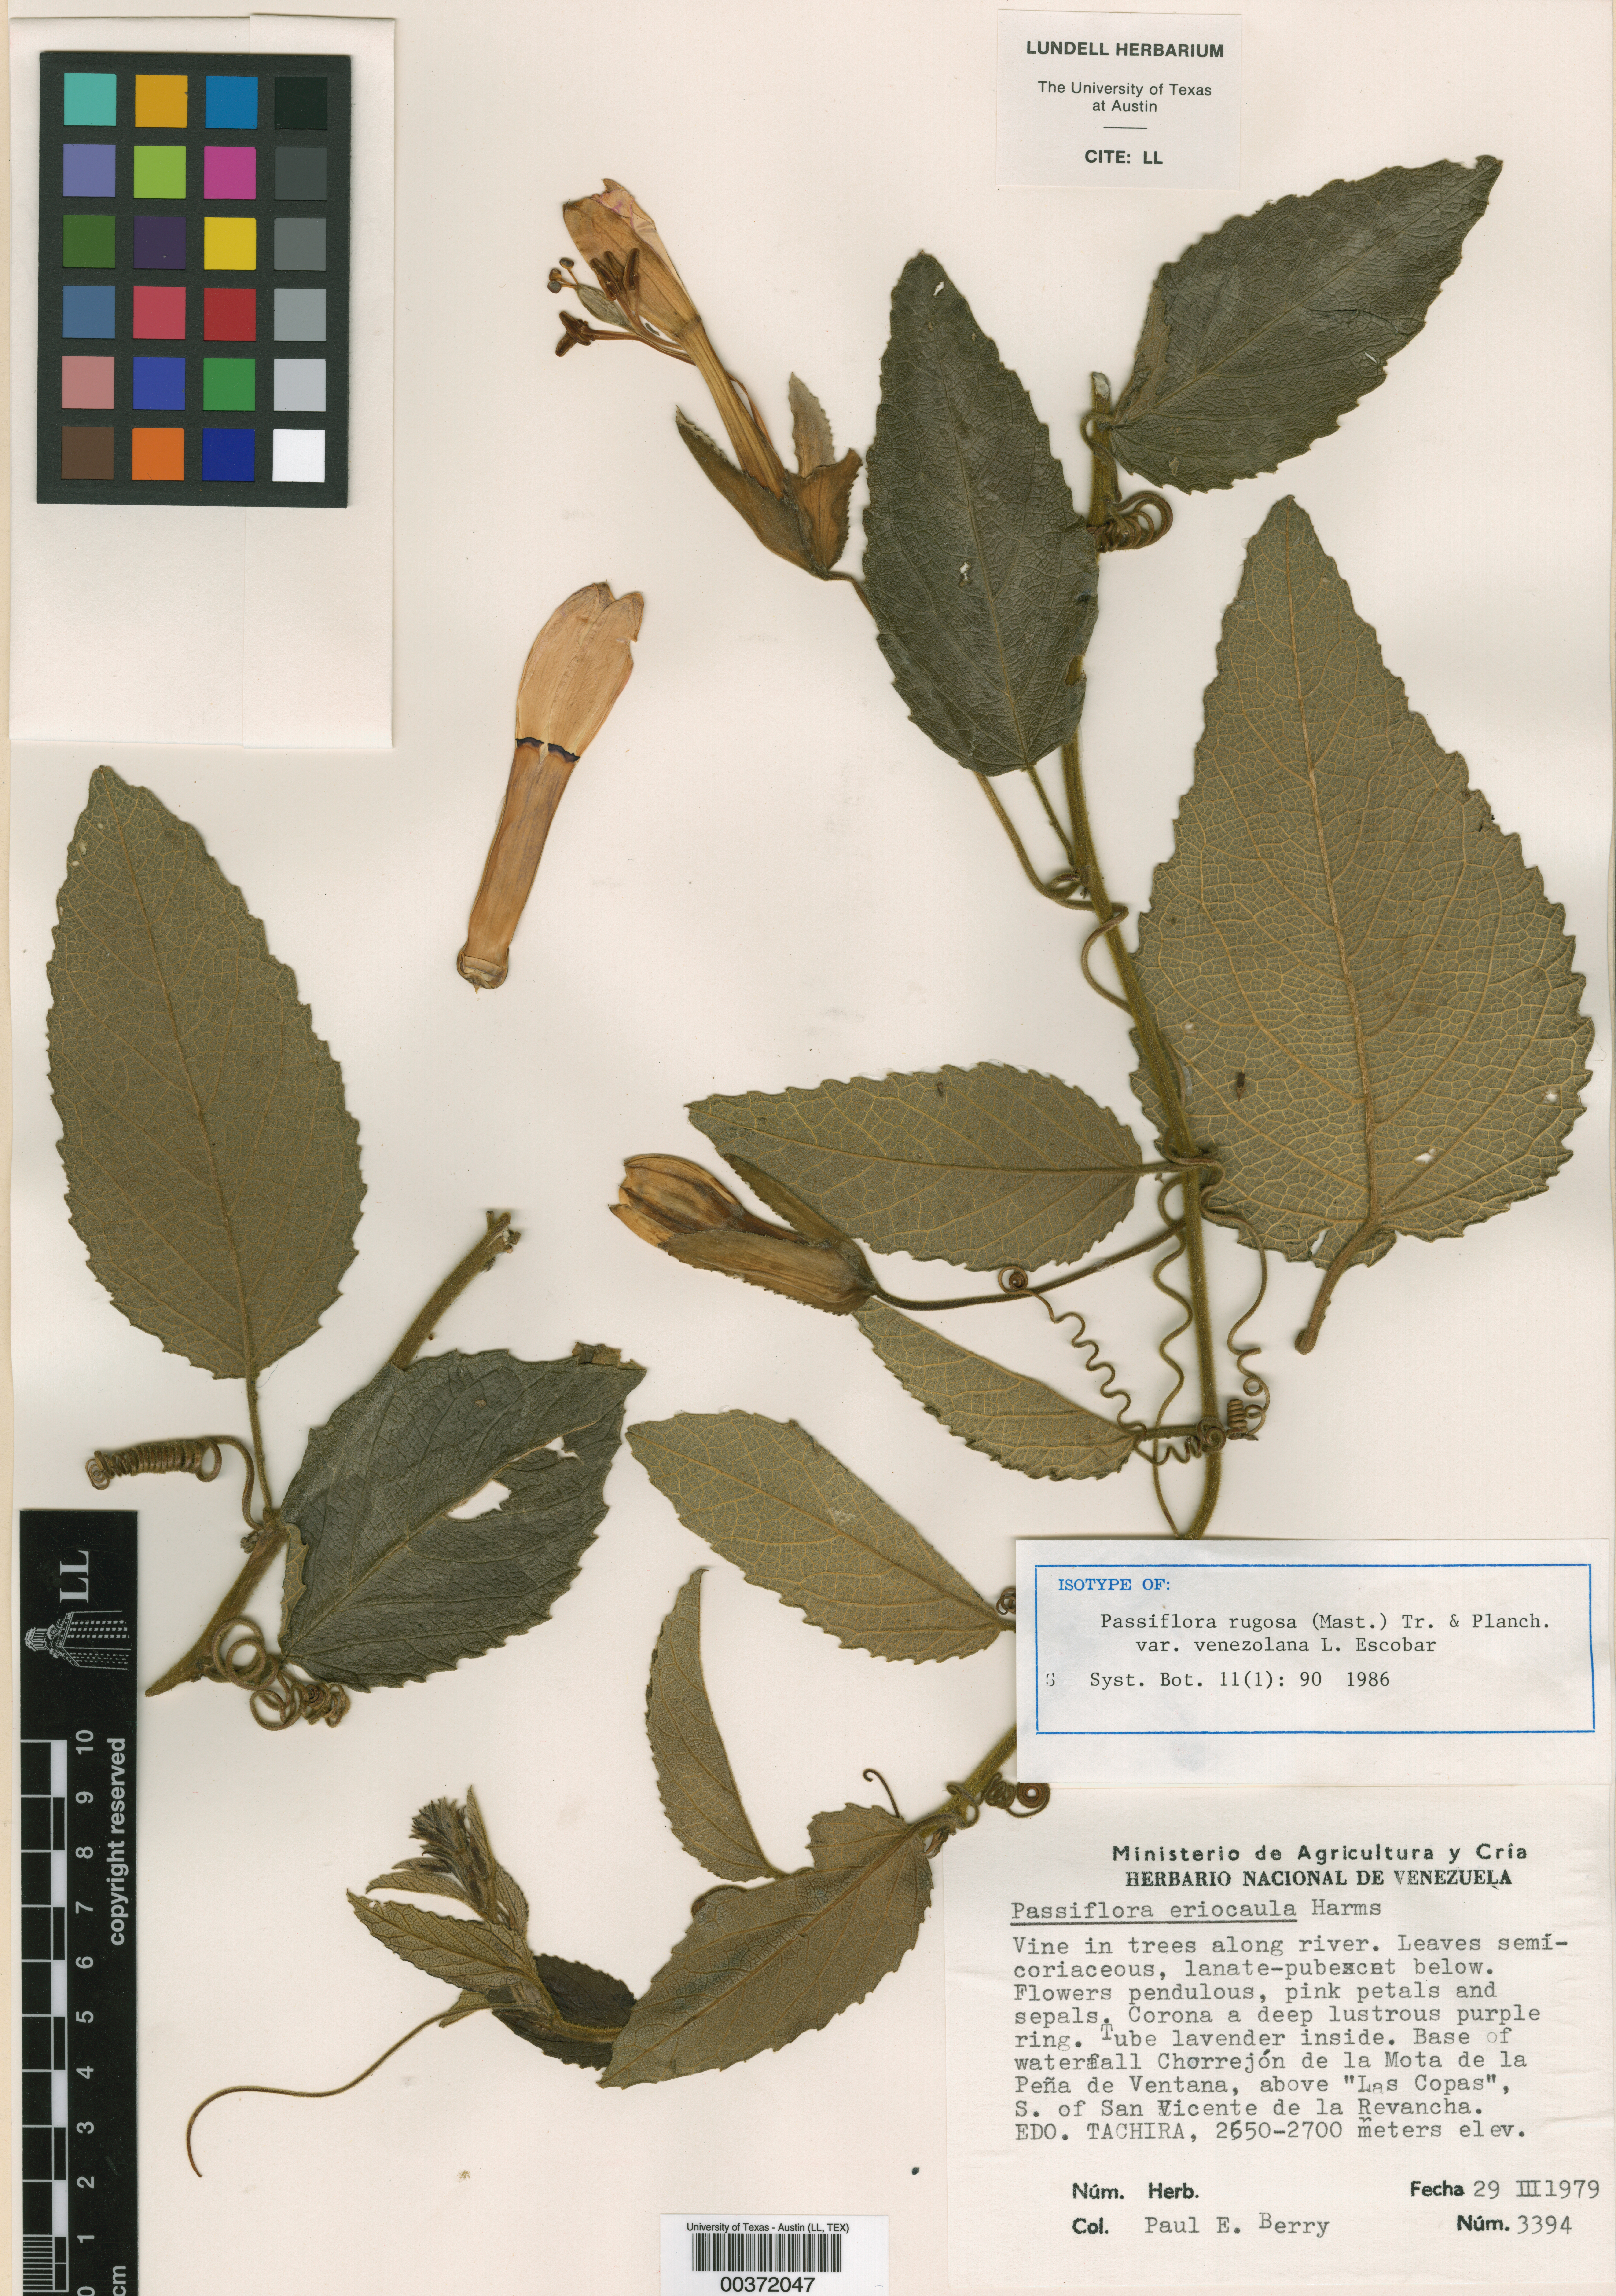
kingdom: Plantae
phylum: Tracheophyta
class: Magnoliopsida
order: Malpighiales
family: Passifloraceae
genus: Passiflora
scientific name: Passiflora rugosa
